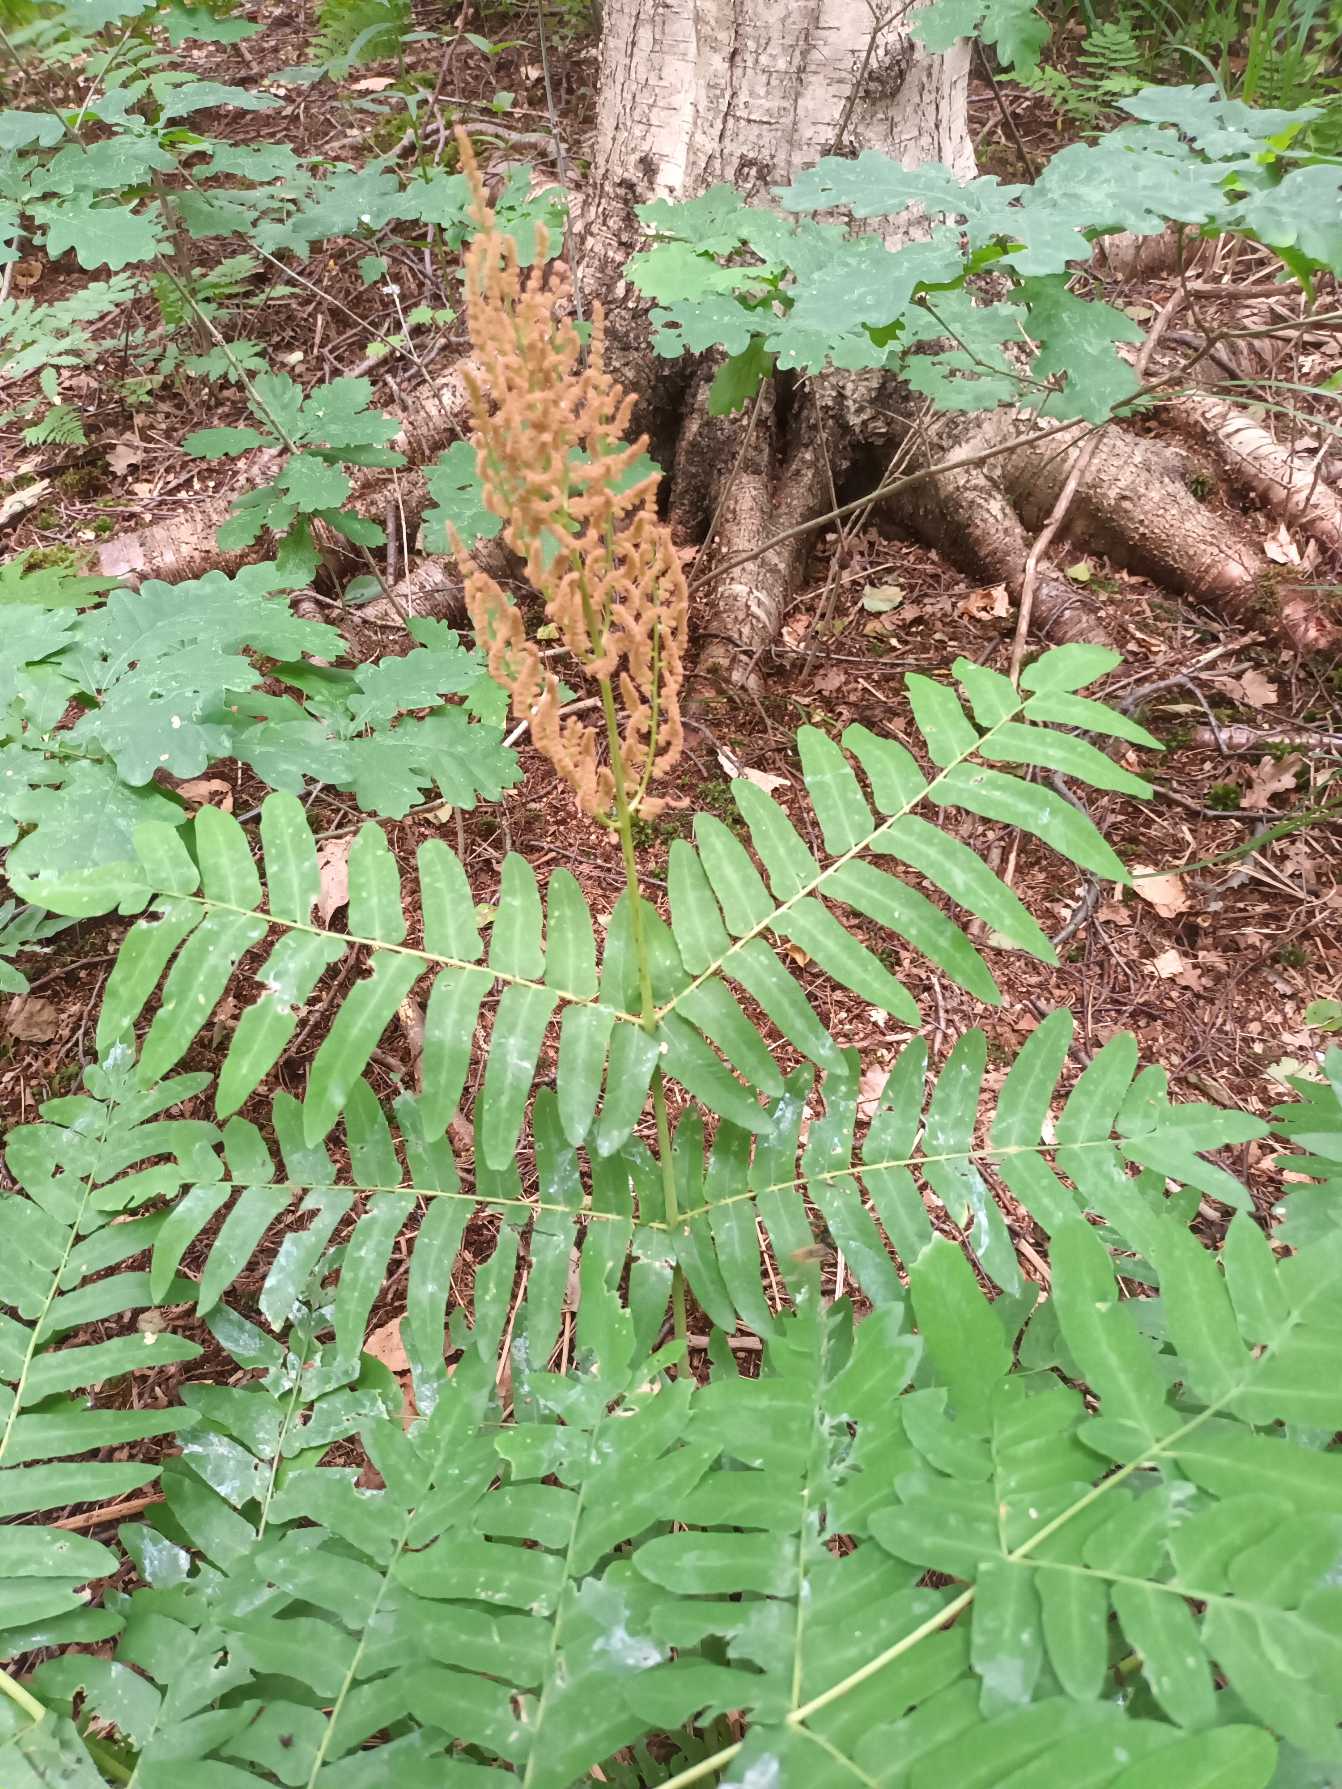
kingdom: Plantae
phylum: Tracheophyta
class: Polypodiopsida
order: Osmundales
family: Osmundaceae
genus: Osmunda
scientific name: Osmunda regalis
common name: Kongebregne
